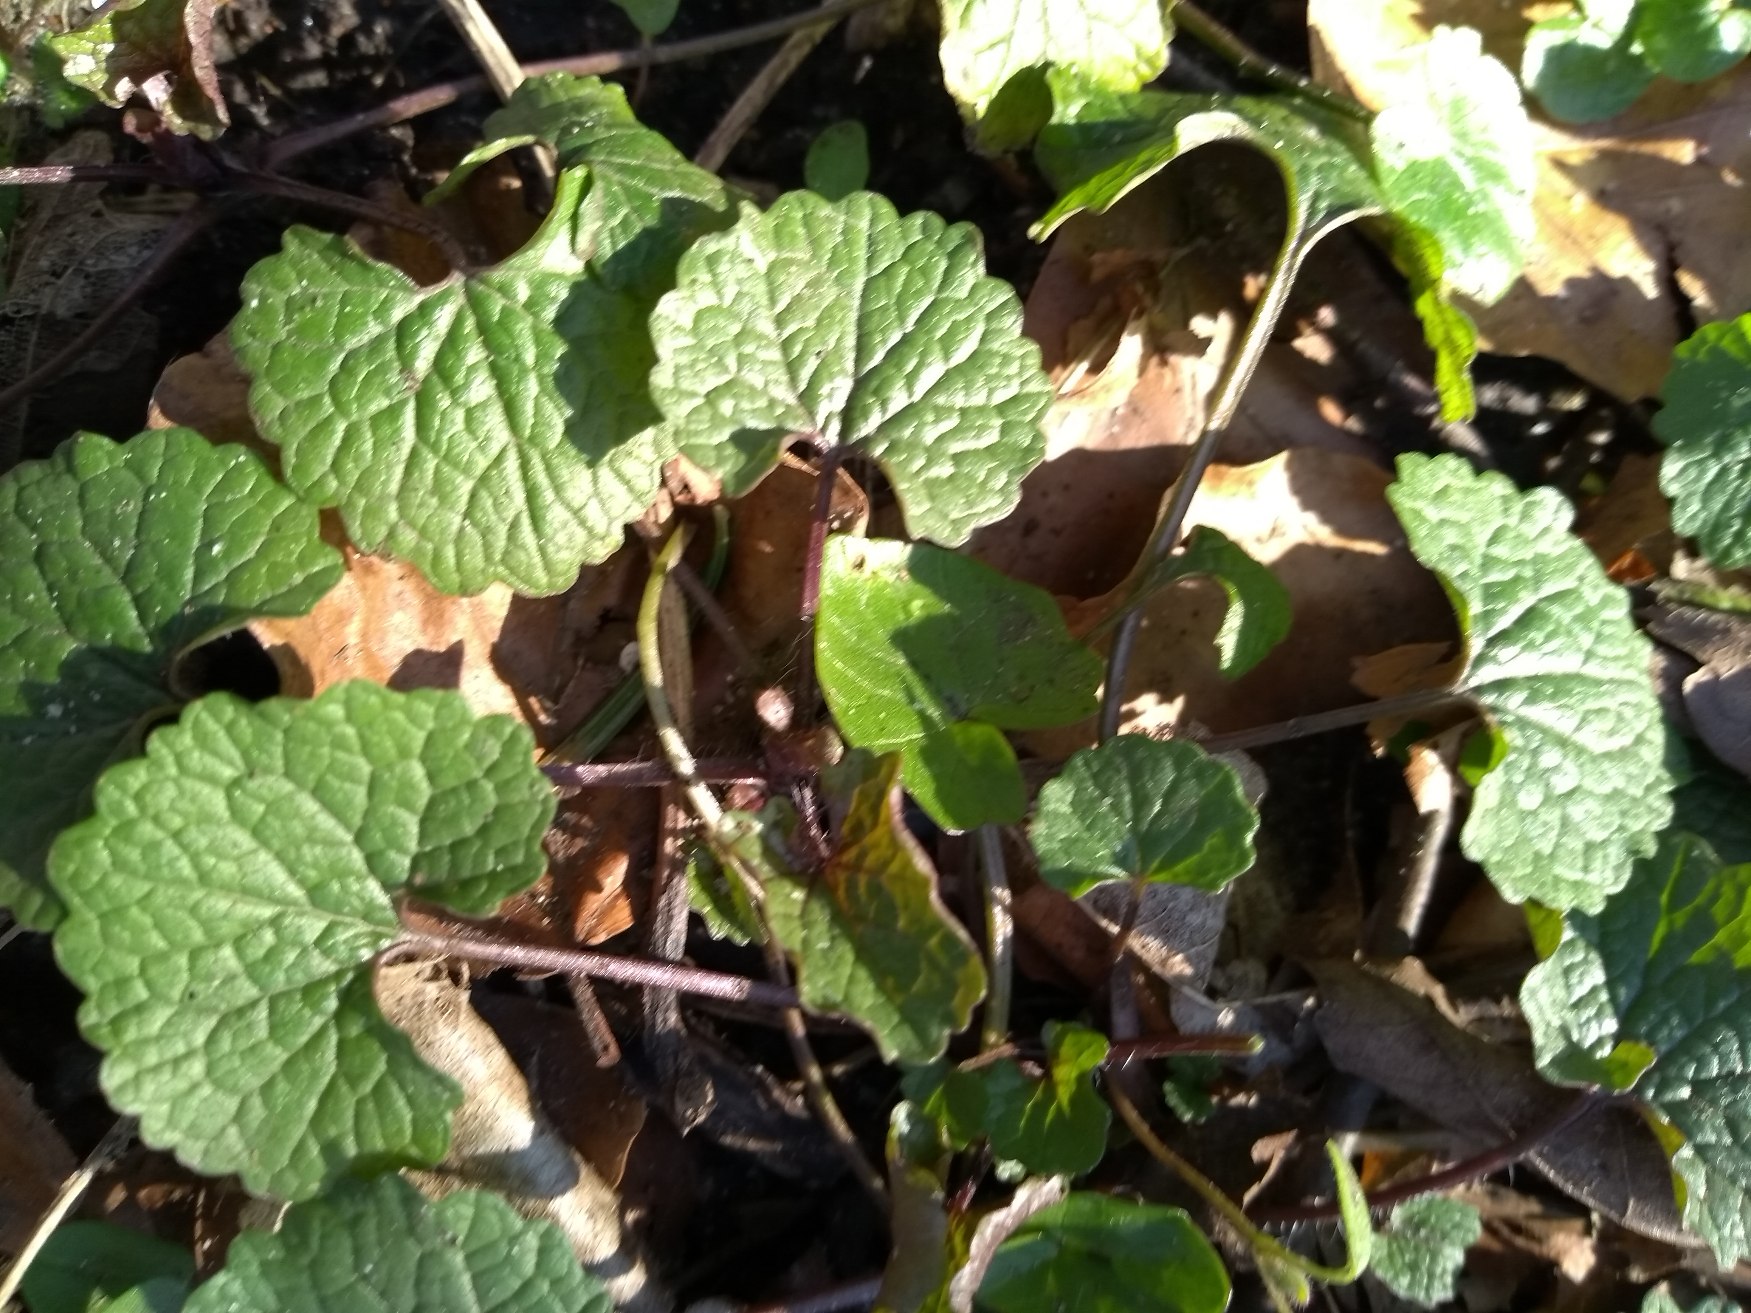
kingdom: Plantae
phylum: Tracheophyta
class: Magnoliopsida
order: Brassicales
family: Brassicaceae
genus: Alliaria
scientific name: Alliaria petiolata
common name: Løgkarse
